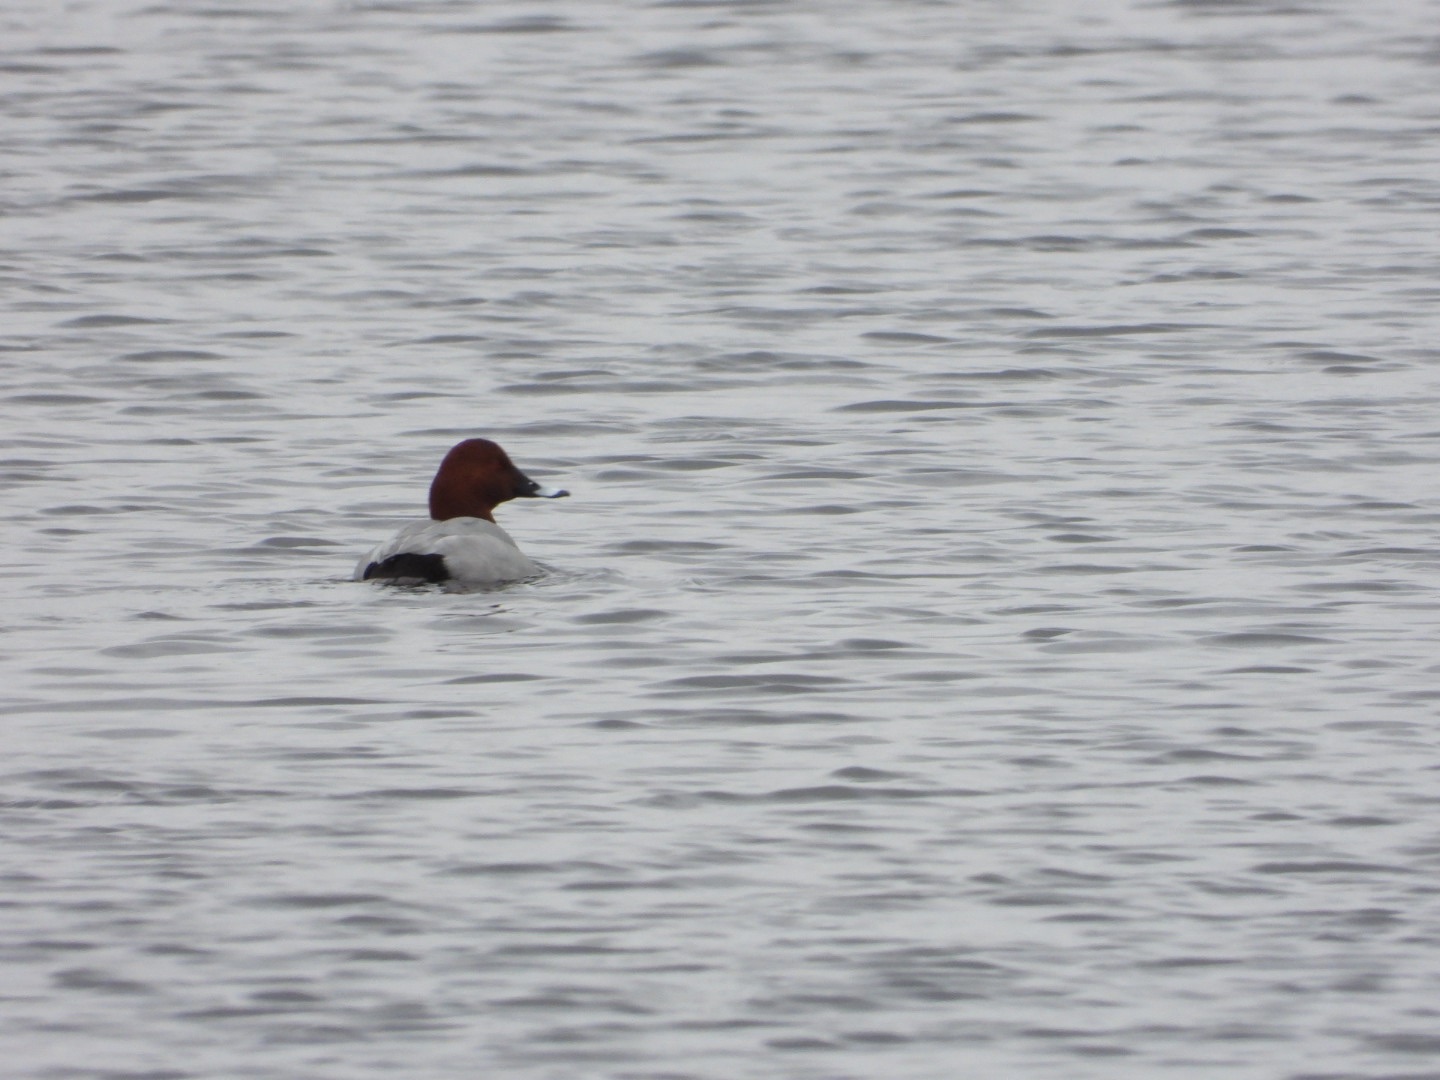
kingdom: Animalia
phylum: Chordata
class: Aves
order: Anseriformes
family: Anatidae
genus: Aythya
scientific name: Aythya ferina
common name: Taffeland
